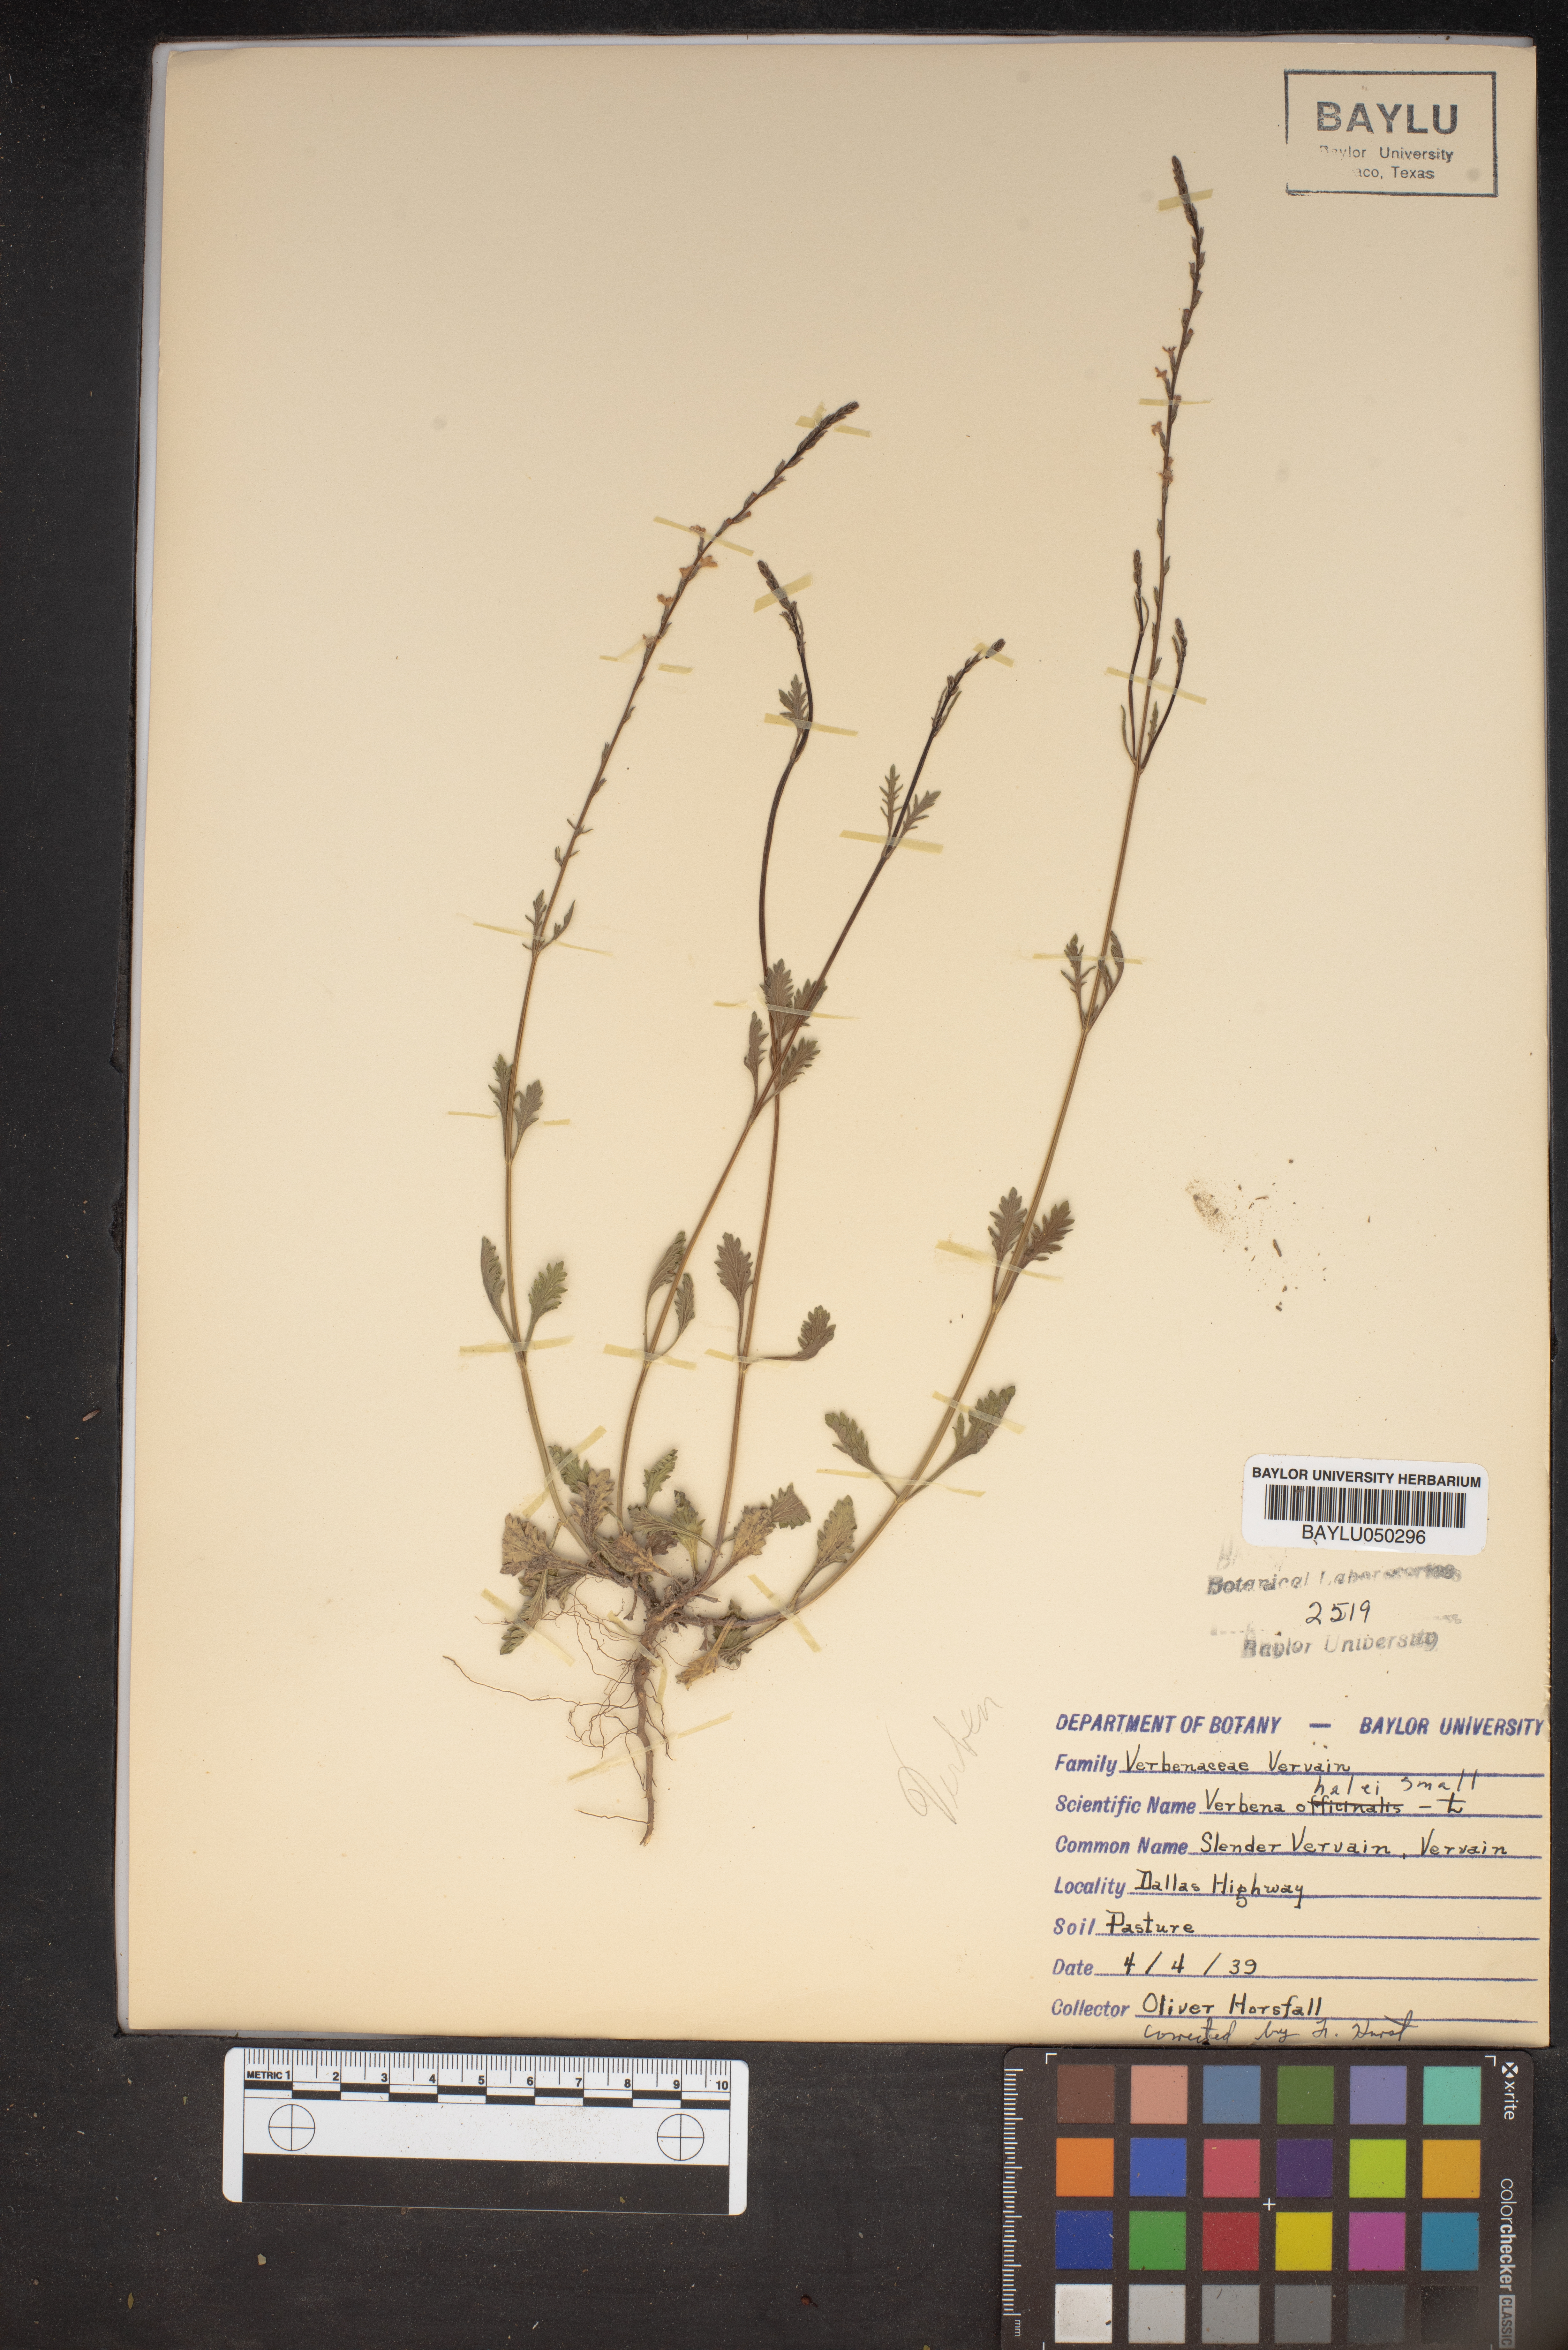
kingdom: Plantae
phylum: Tracheophyta
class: Magnoliopsida
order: Lamiales
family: Verbenaceae
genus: Verbena
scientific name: Verbena halei
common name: Texas vervain
